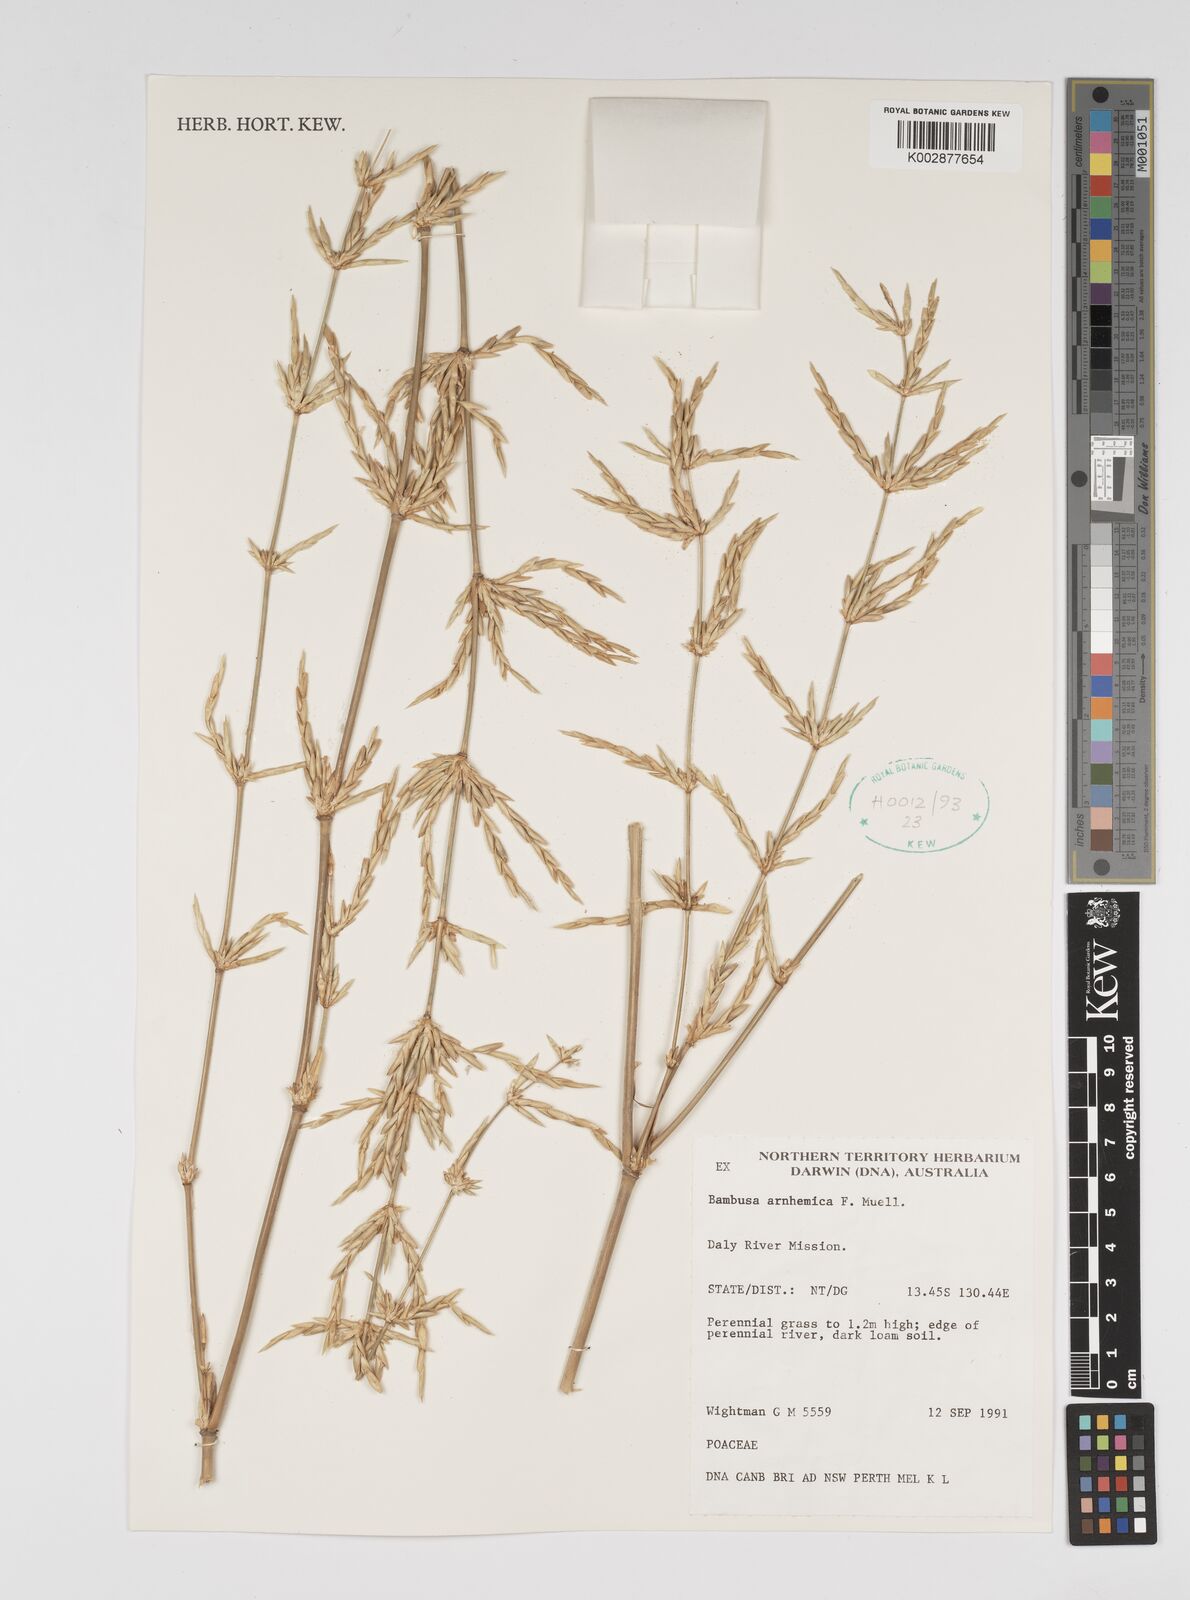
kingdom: Plantae
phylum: Tracheophyta
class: Liliopsida
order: Poales
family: Poaceae
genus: Bambusa
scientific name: Bambusa arnhemica
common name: Top-end bamboo
